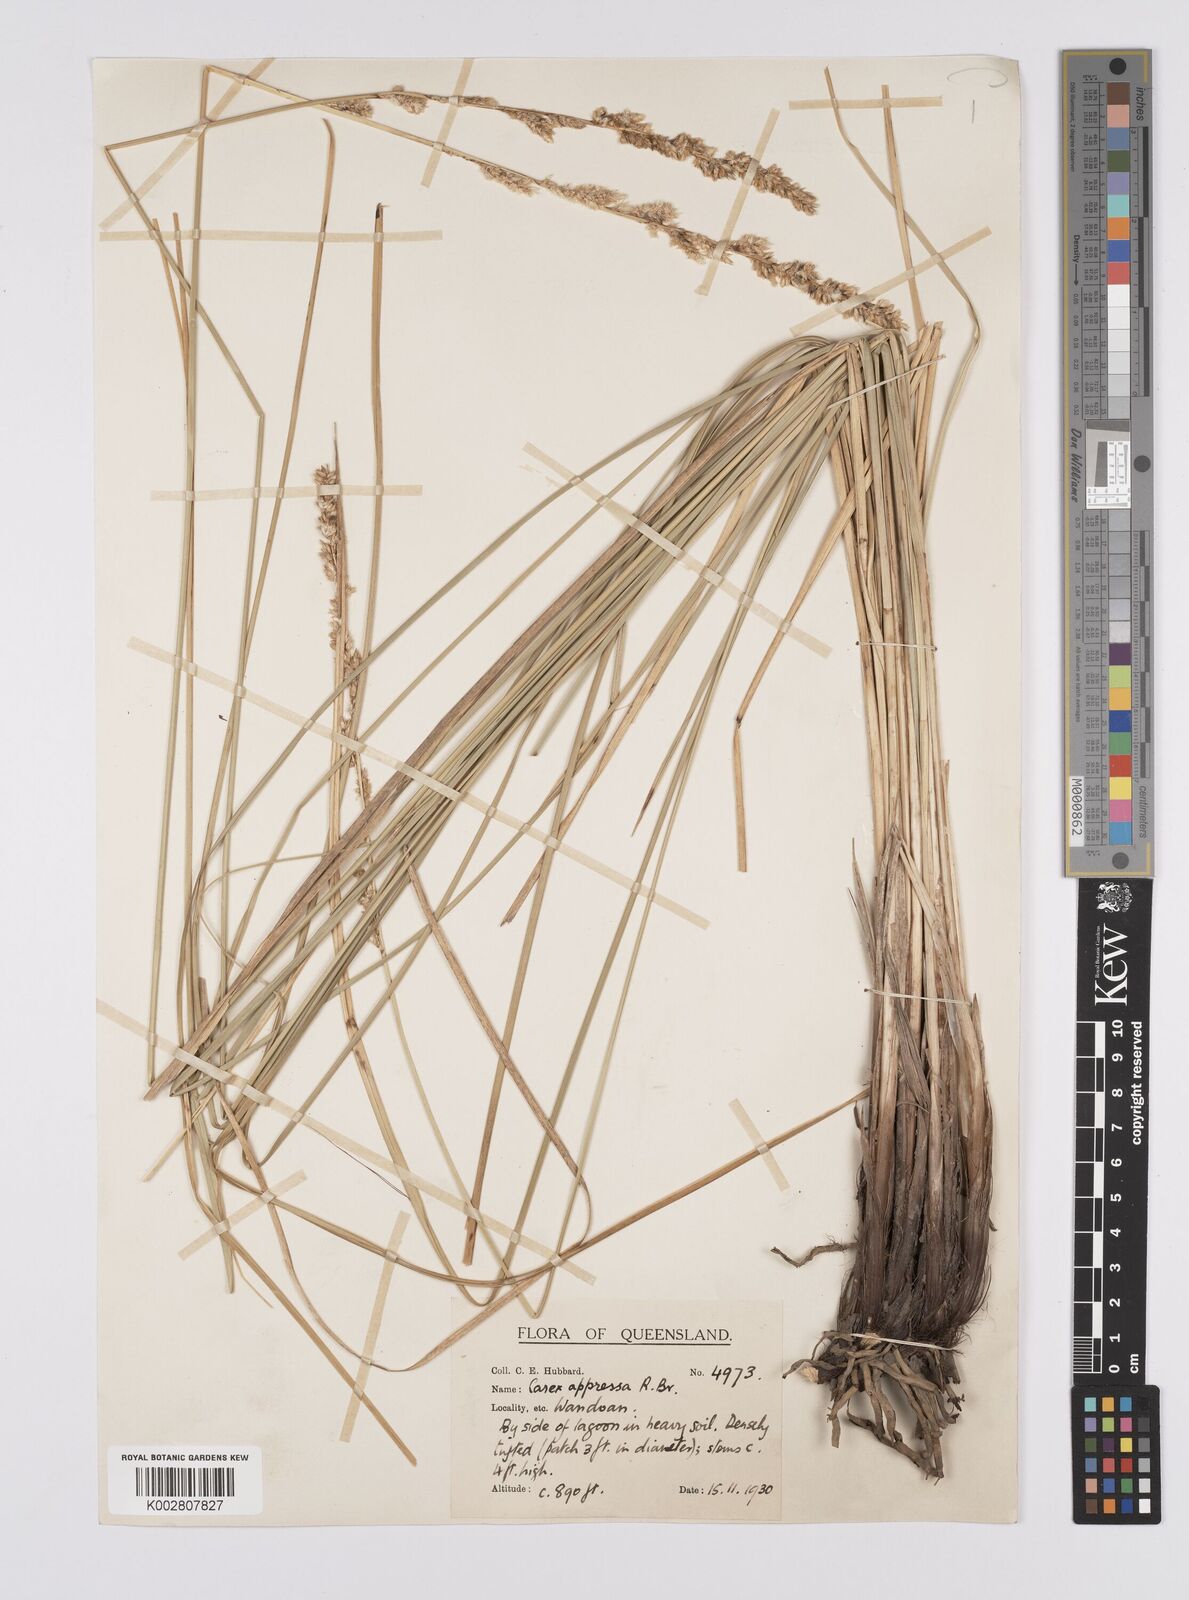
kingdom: Plantae
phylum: Tracheophyta
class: Liliopsida
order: Poales
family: Cyperaceae
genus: Carex
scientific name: Carex appressa
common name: Tussock sedge
